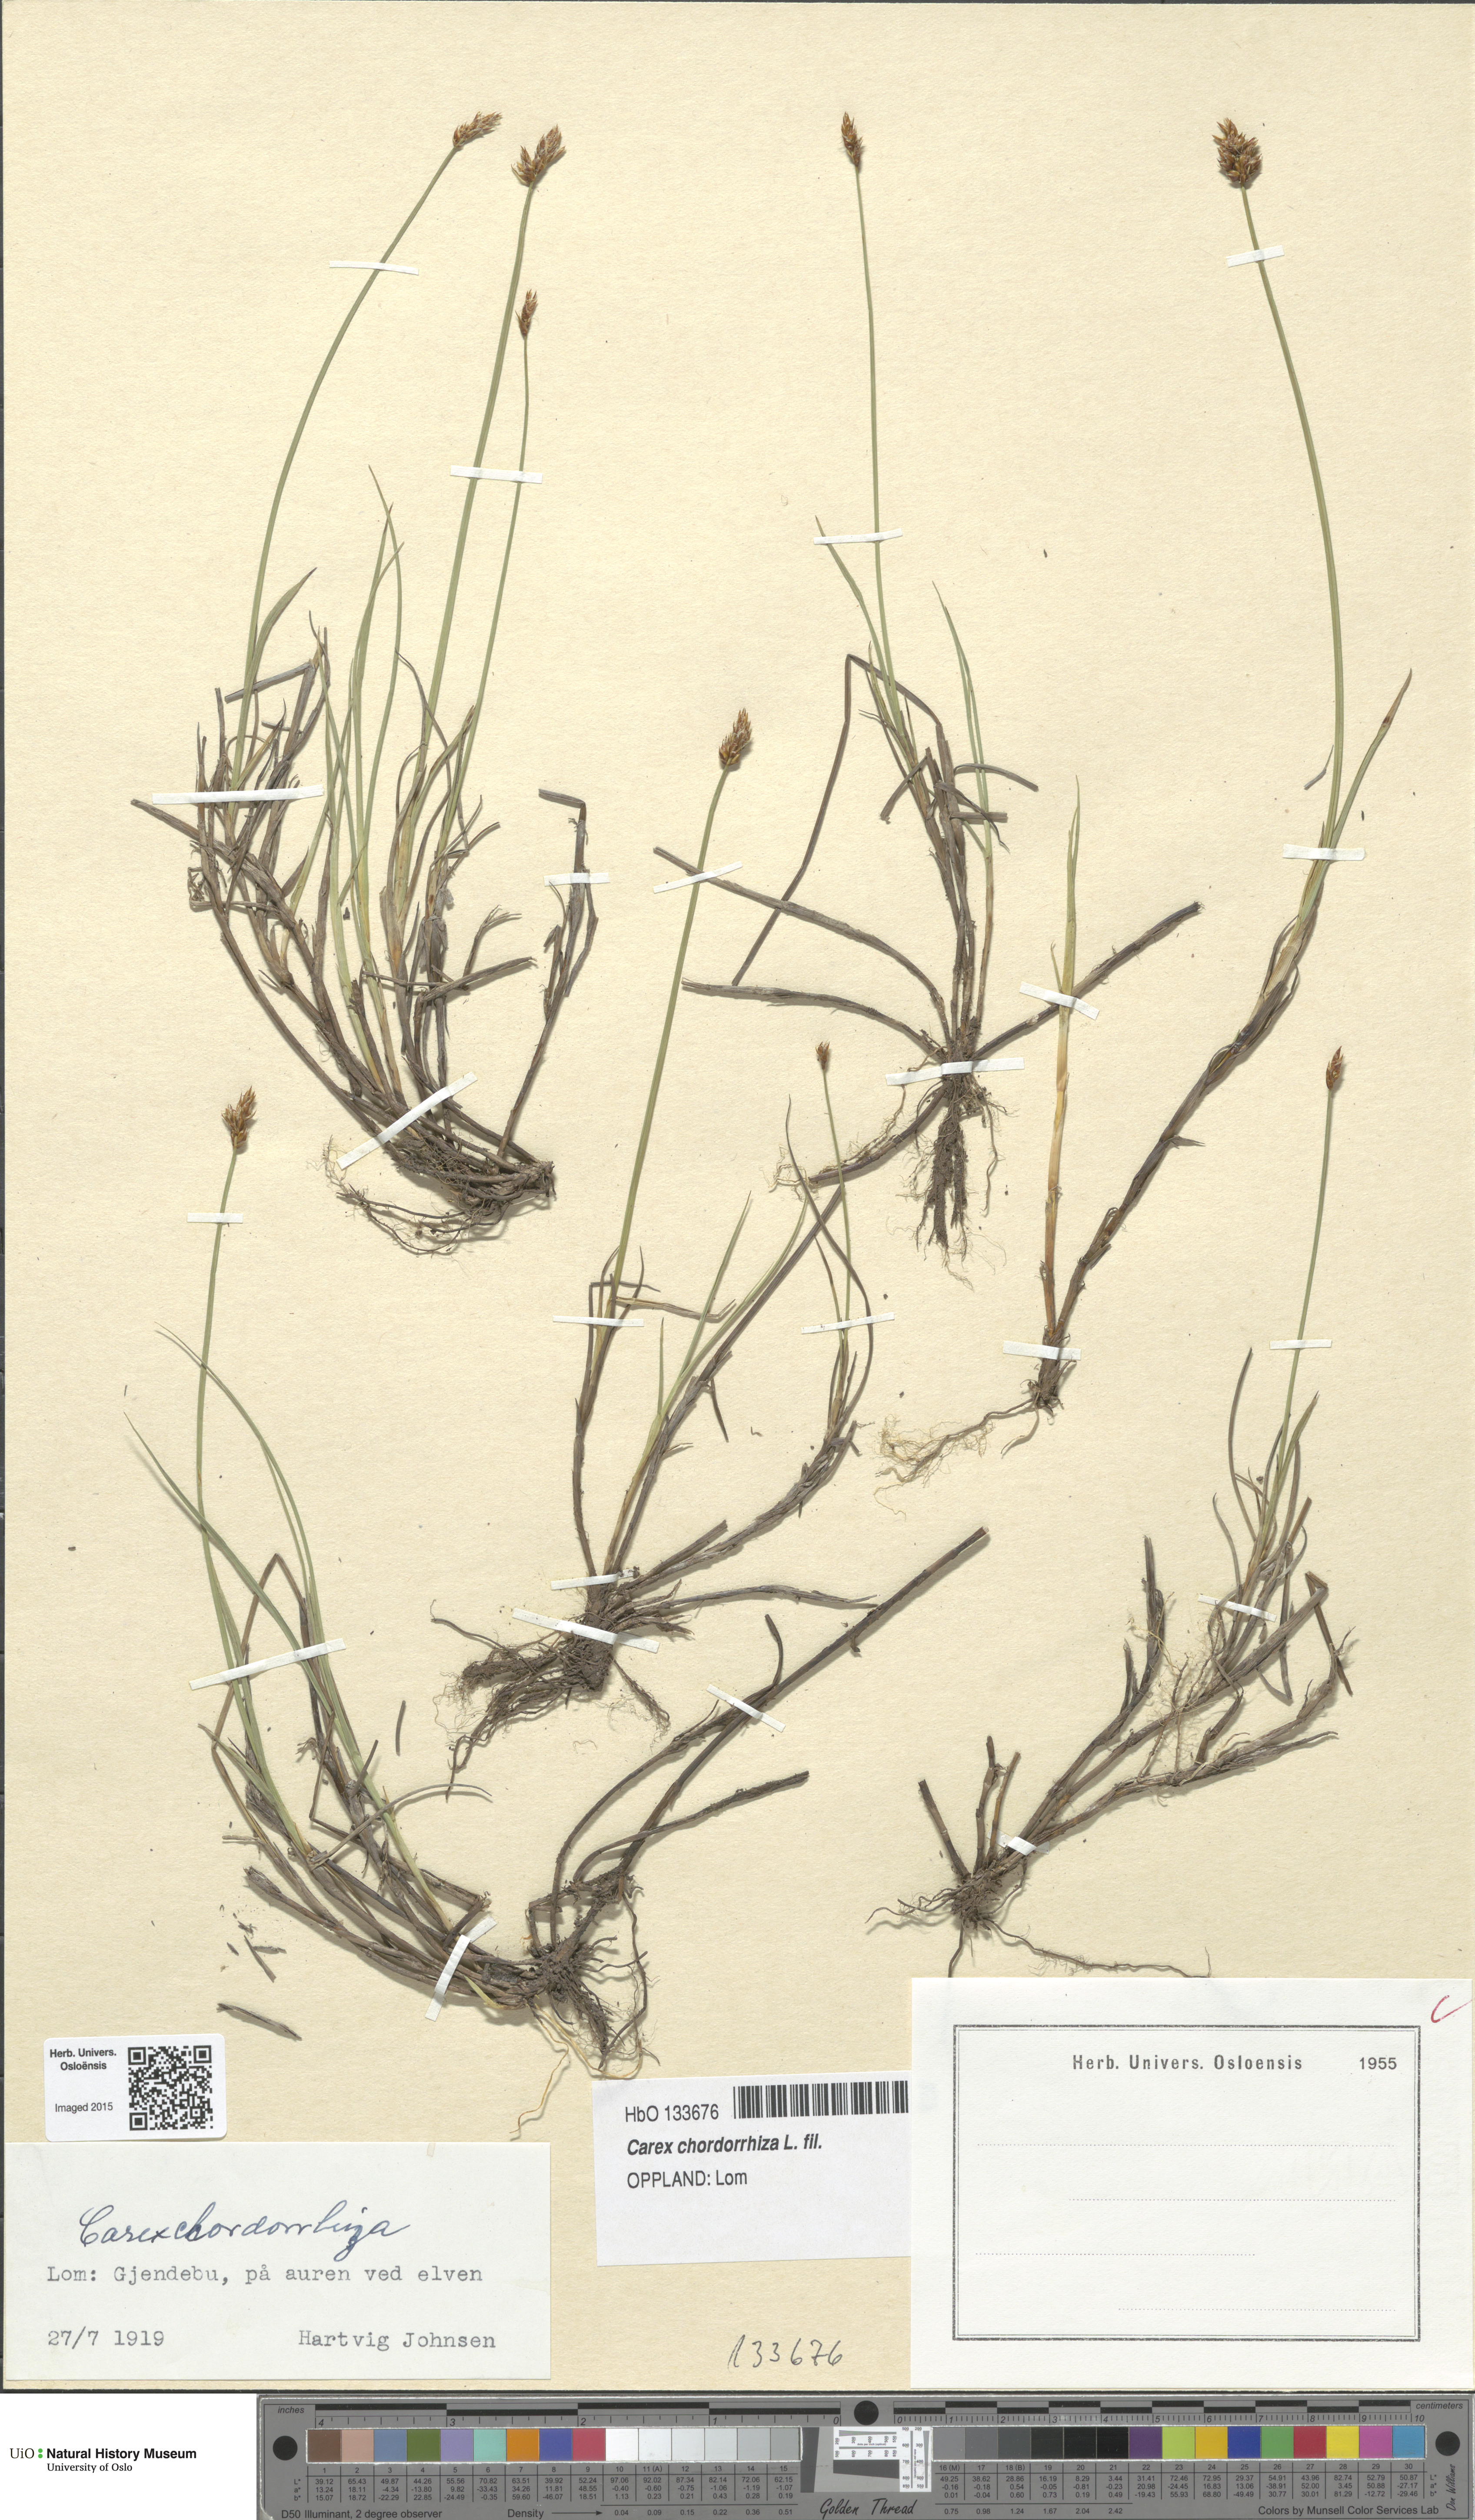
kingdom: Plantae
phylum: Tracheophyta
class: Liliopsida
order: Poales
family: Cyperaceae
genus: Carex
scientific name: Carex chordorrhiza
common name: String sedge
